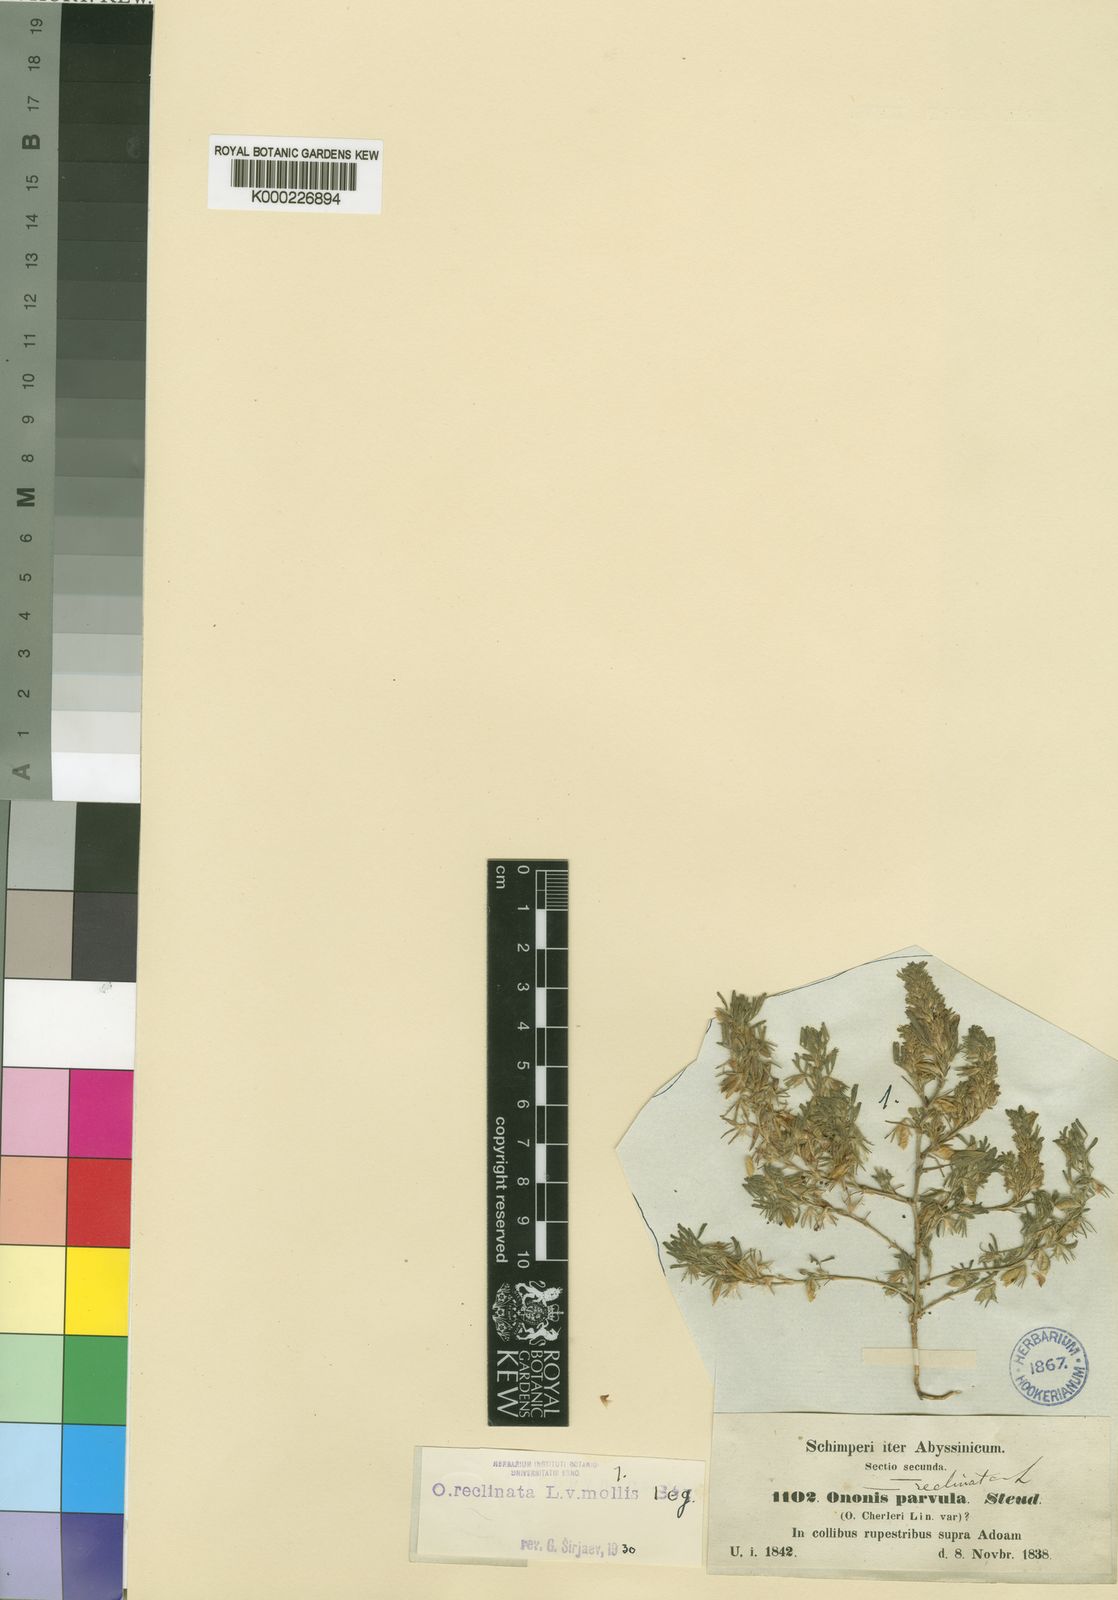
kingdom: Plantae
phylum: Tracheophyta
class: Magnoliopsida
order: Fabales
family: Fabaceae
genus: Ononis
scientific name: Ononis reclinata
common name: Small restharrow
